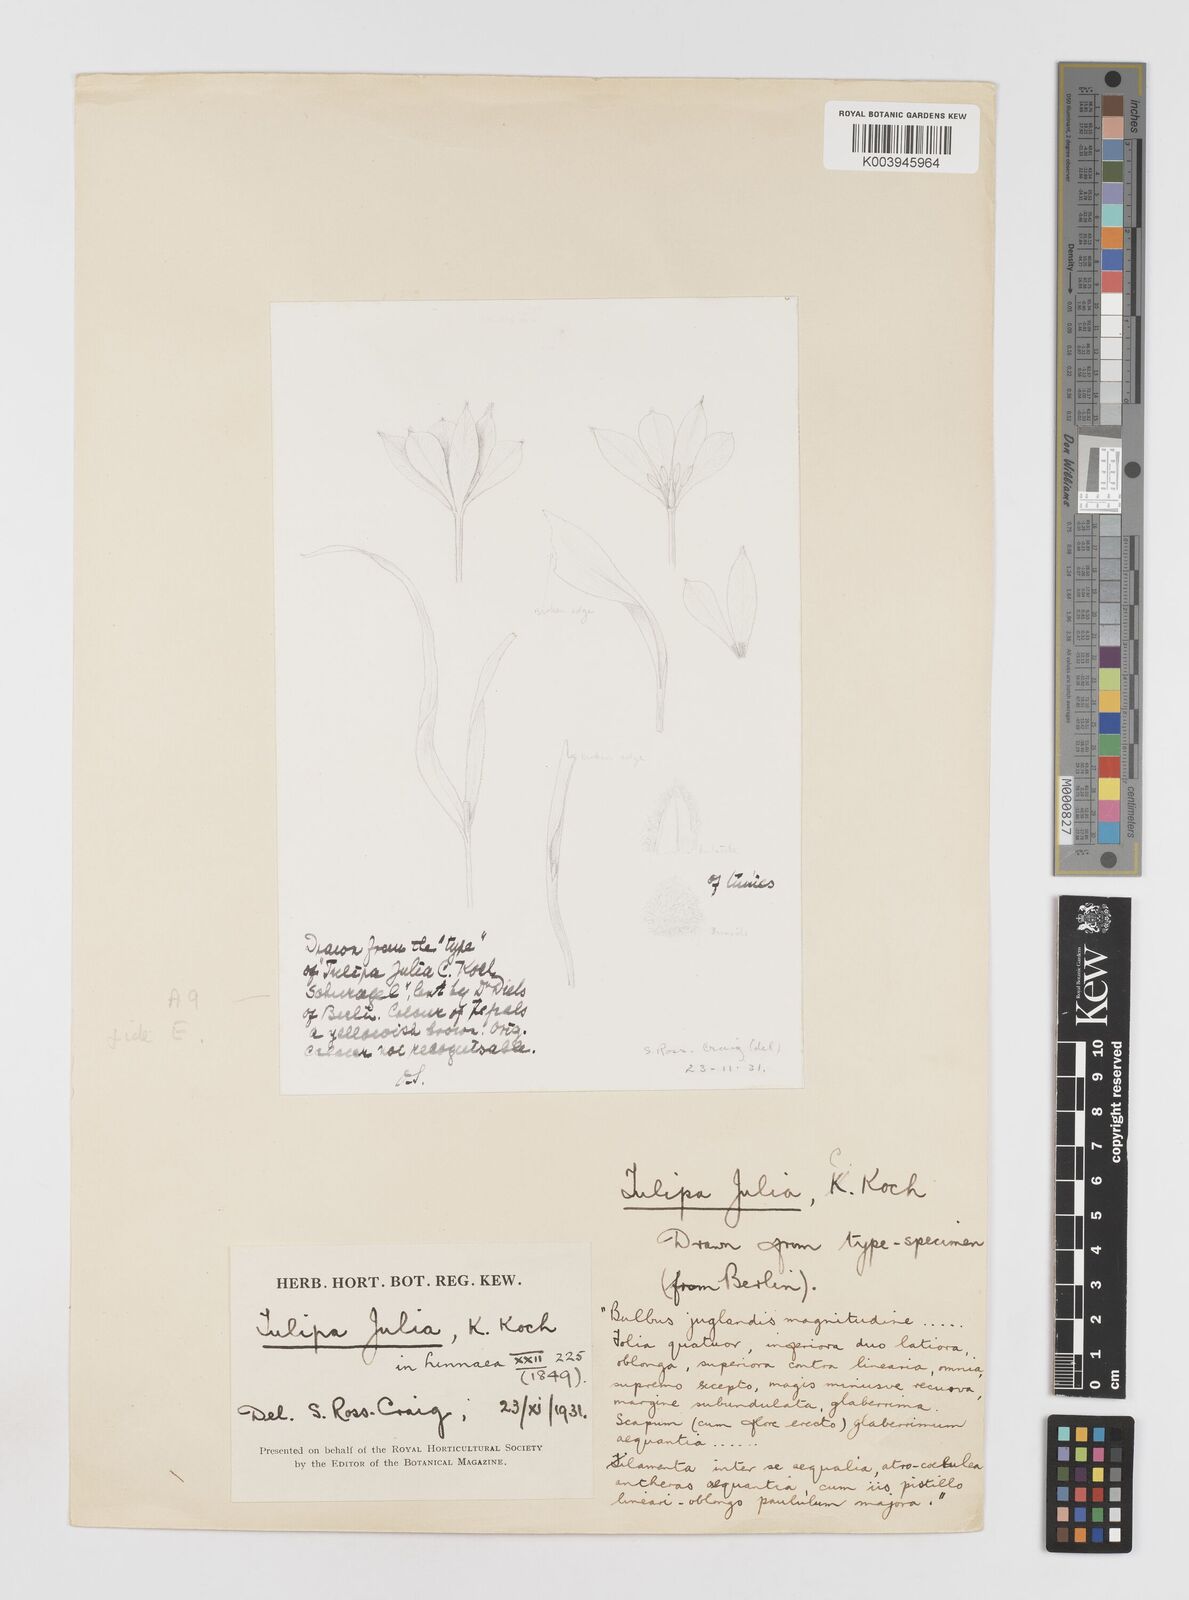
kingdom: Plantae
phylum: Tracheophyta
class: Liliopsida
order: Liliales
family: Liliaceae
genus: Tulipa
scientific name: Tulipa julia
